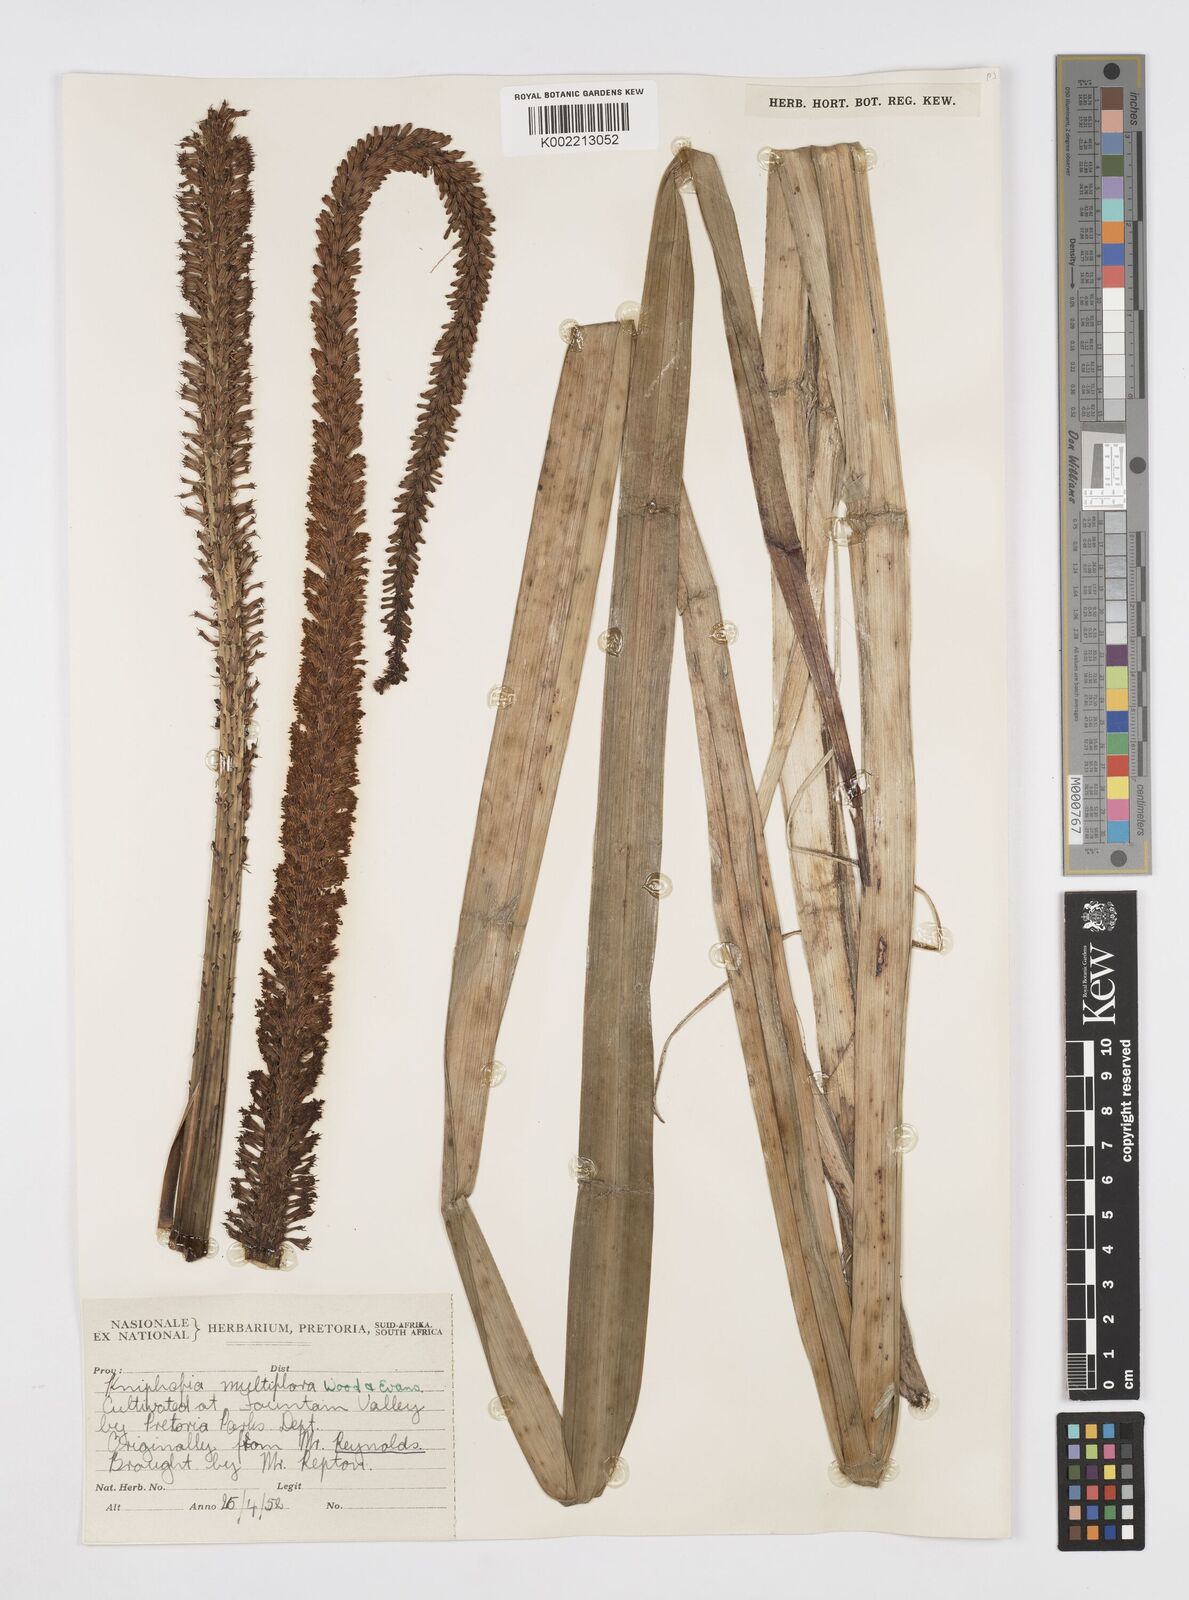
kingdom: Plantae
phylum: Tracheophyta
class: Liliopsida
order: Asparagales
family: Asphodelaceae
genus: Kniphofia
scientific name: Kniphofia multiflora
